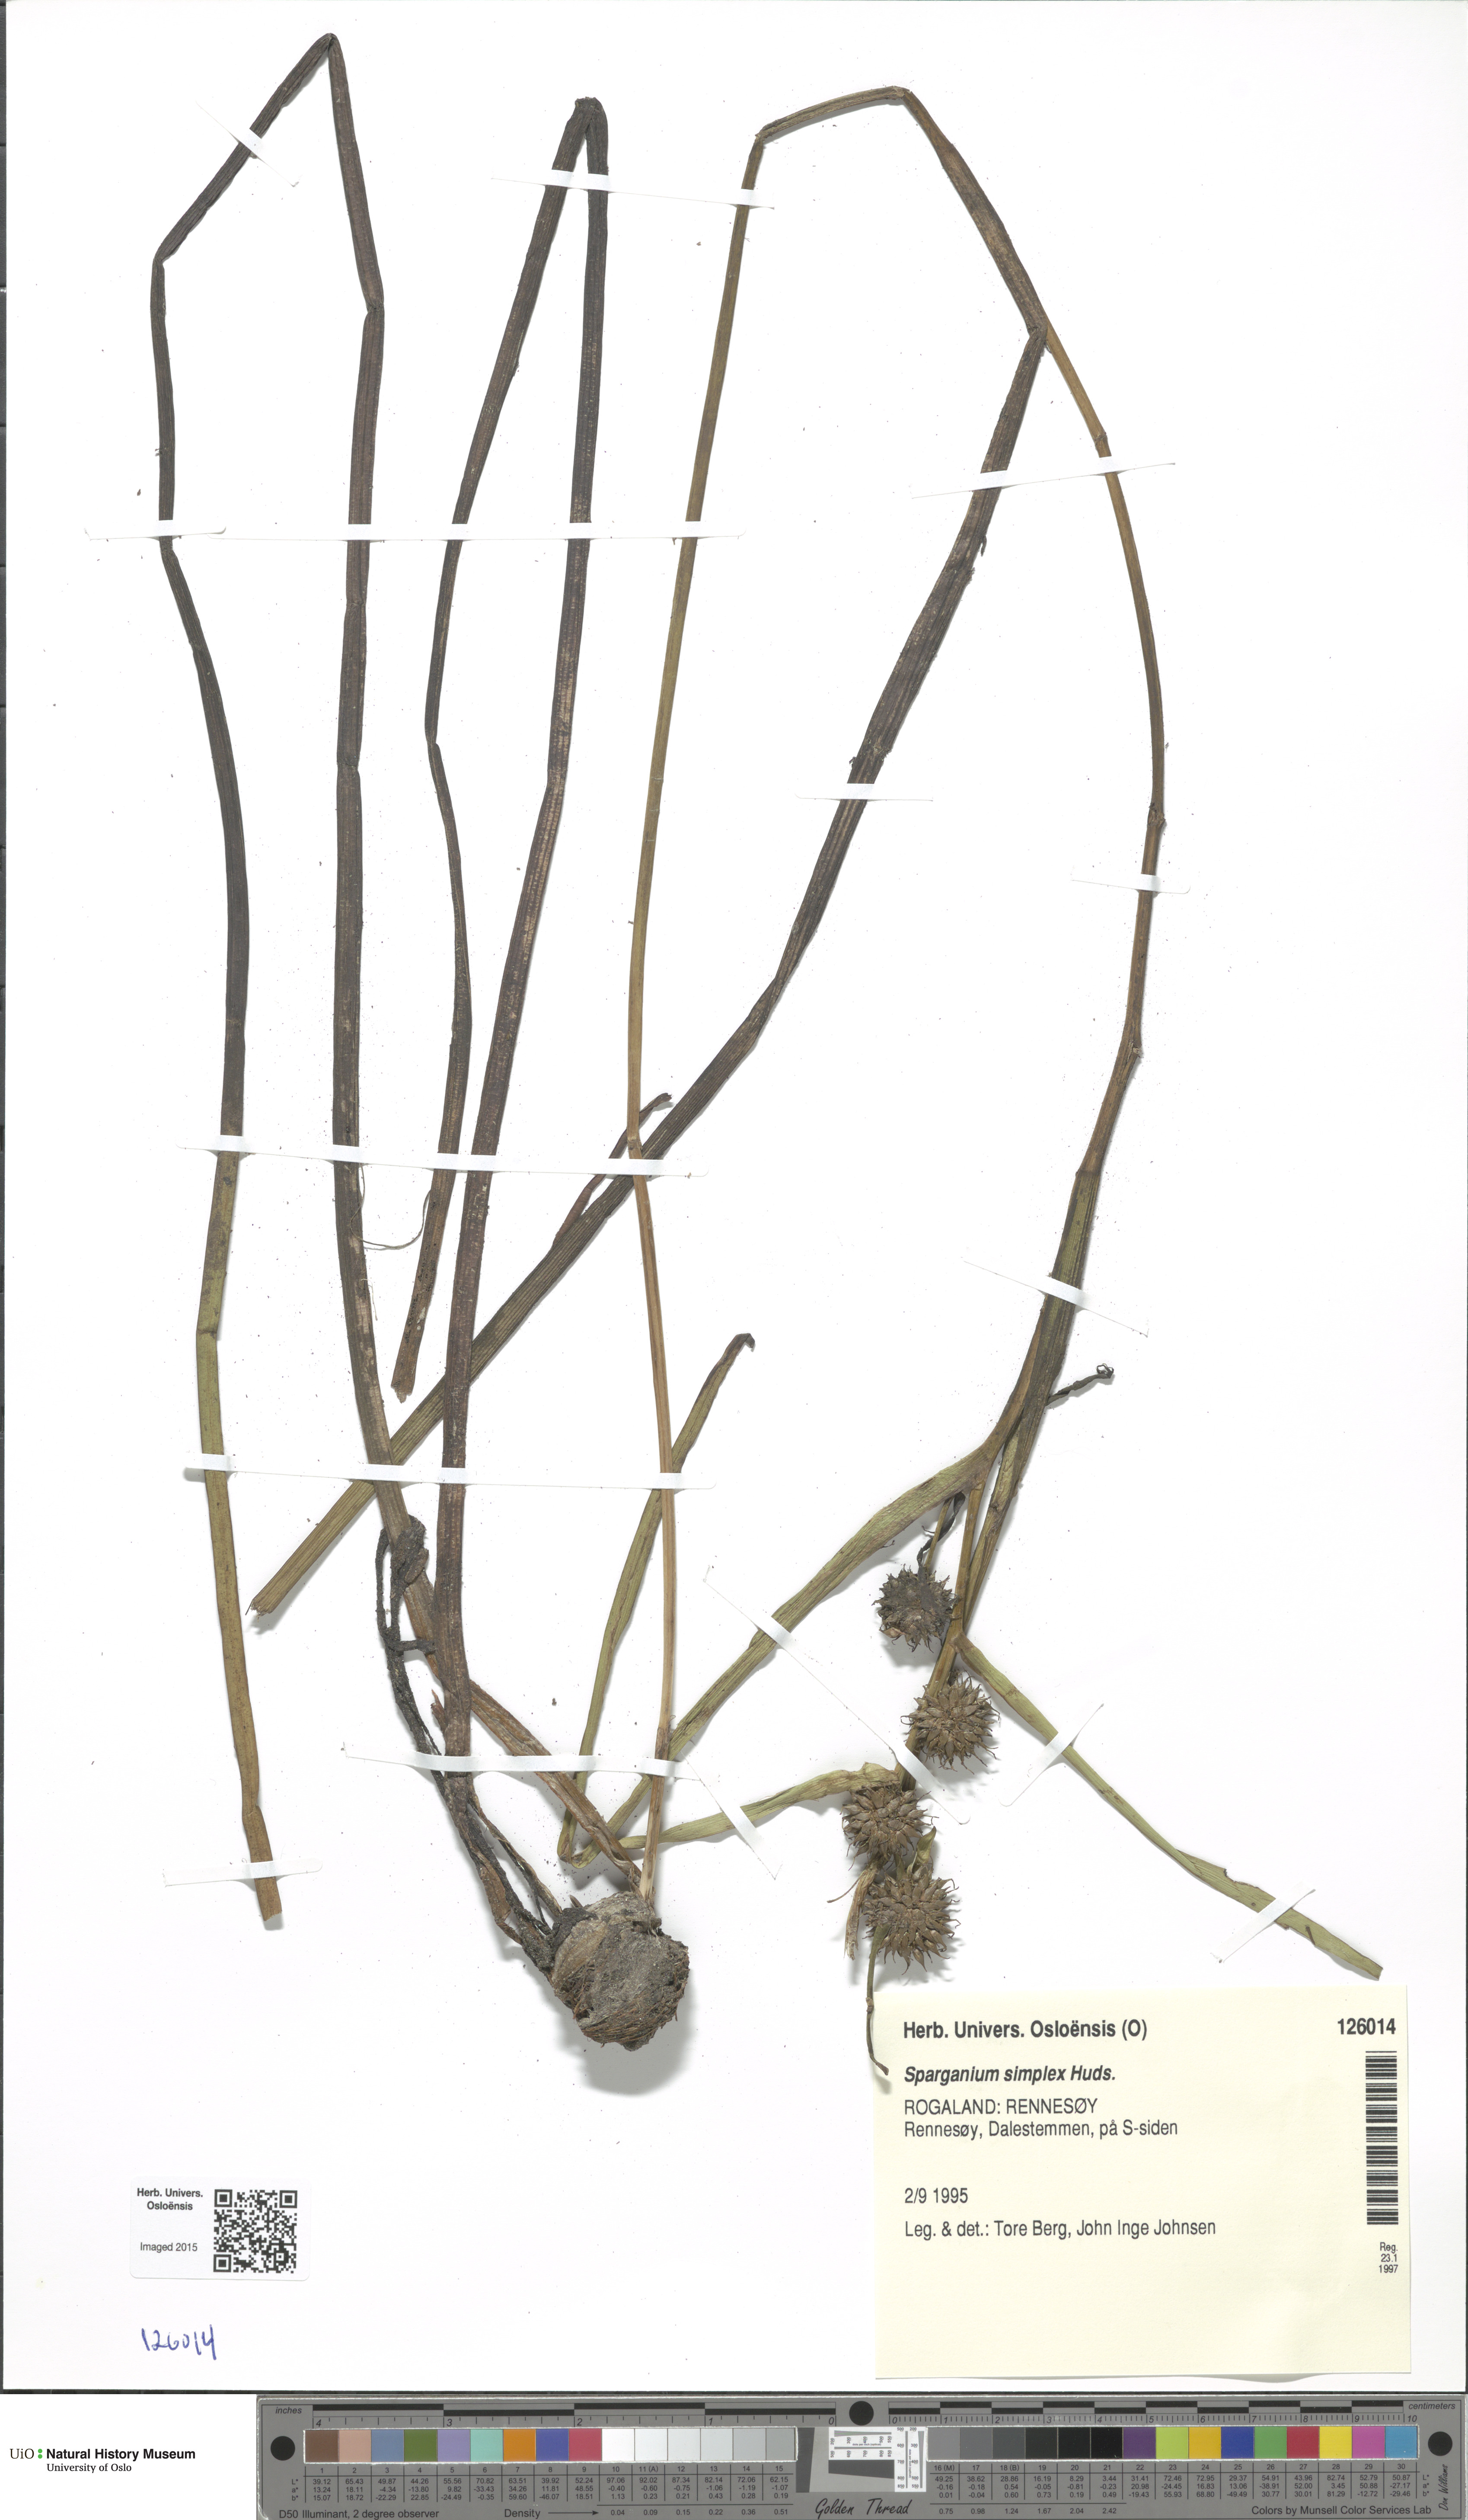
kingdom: Plantae
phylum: Tracheophyta
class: Liliopsida
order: Poales
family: Typhaceae
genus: Sparganium
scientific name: Sparganium emersum
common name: Unbranched bur-reed
